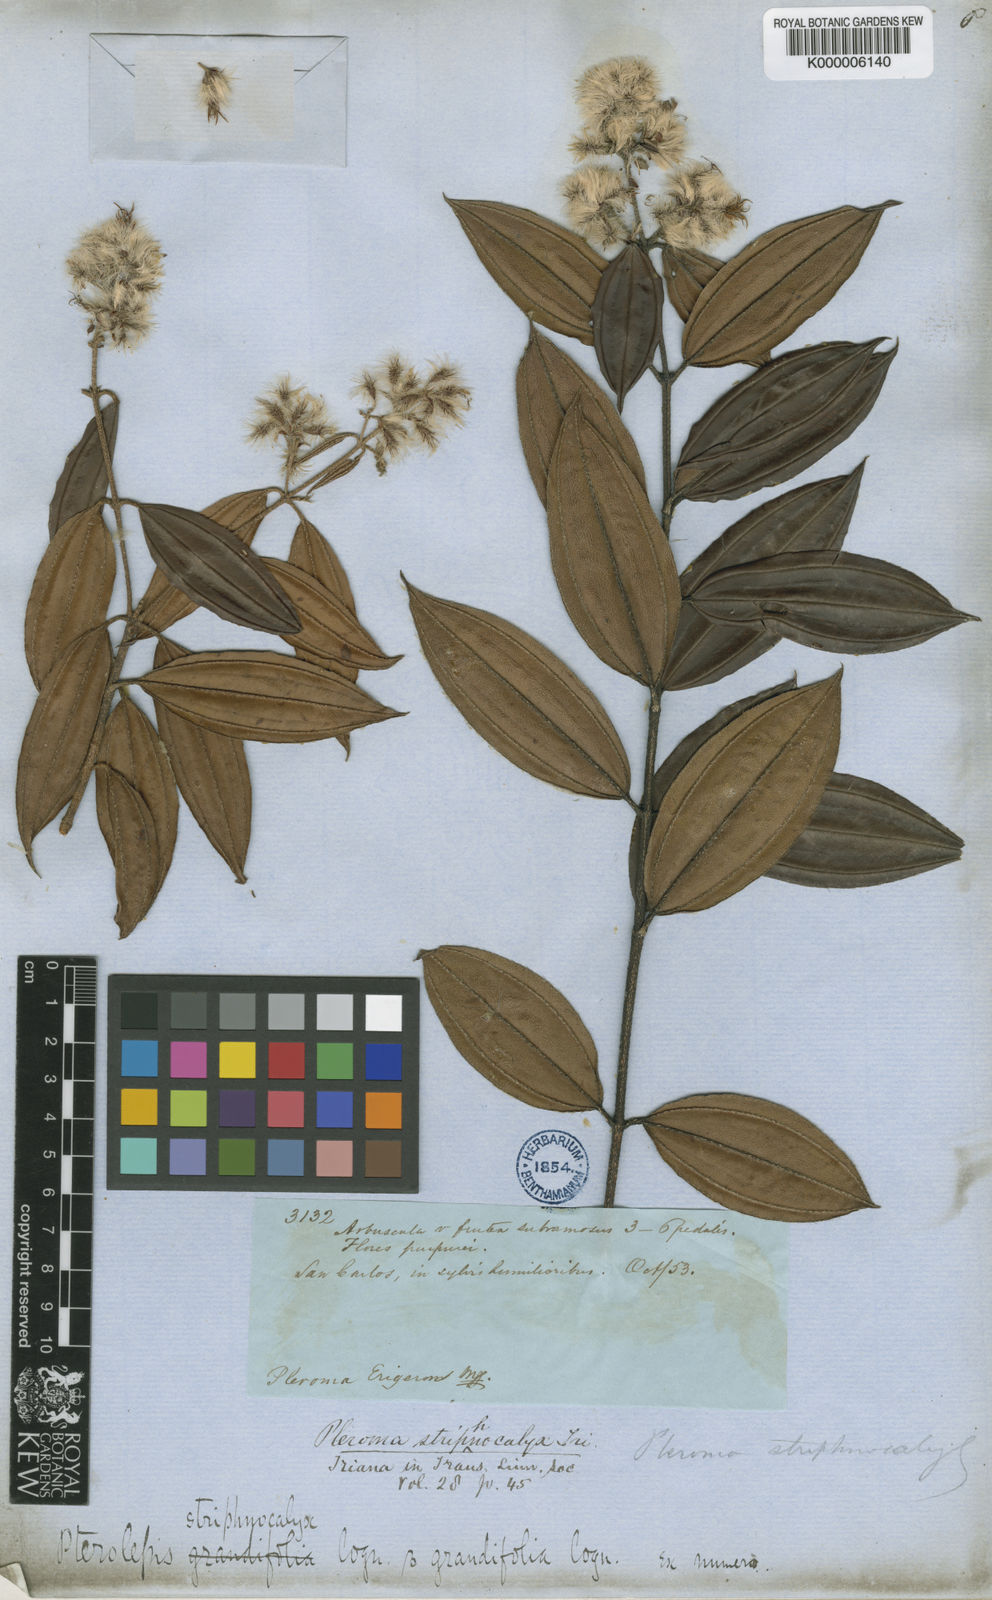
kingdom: Plantae
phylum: Tracheophyta
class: Magnoliopsida
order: Myrtales
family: Melastomataceae
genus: Tibouchina
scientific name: Tibouchina steyermarkii
